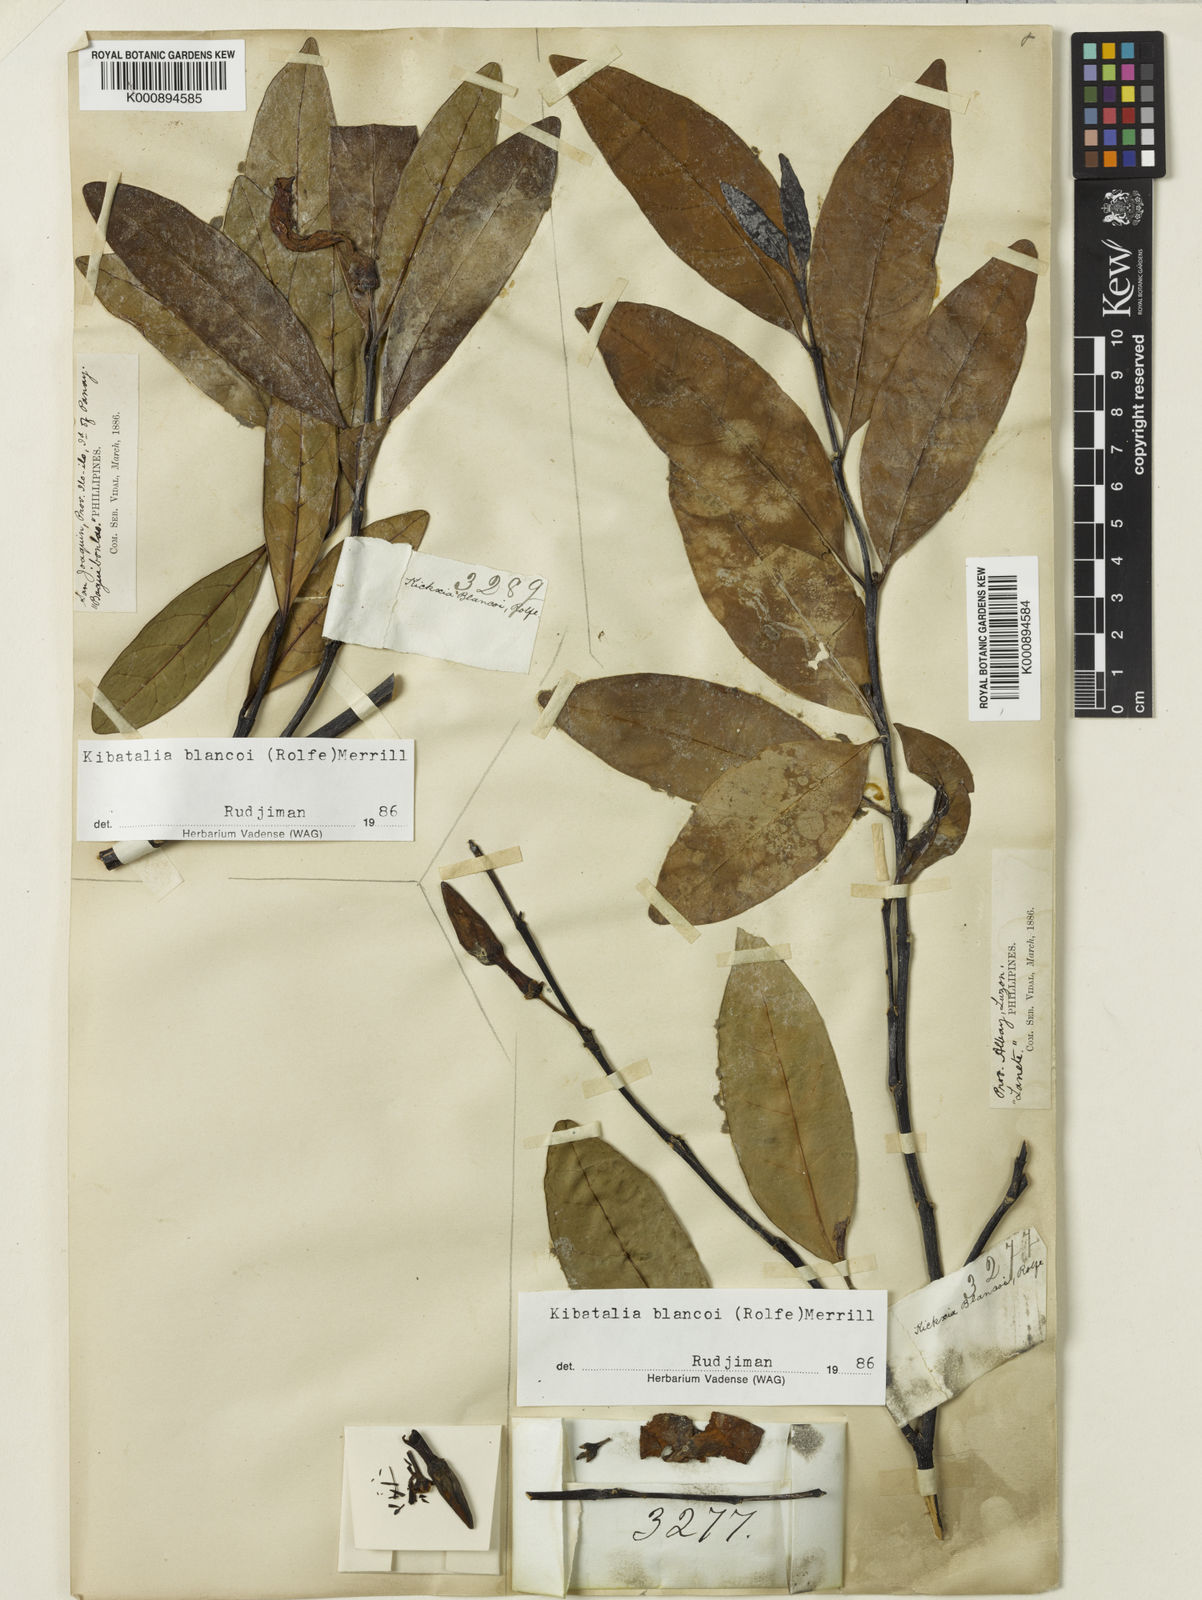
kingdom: Plantae
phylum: Tracheophyta
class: Magnoliopsida
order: Gentianales
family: Apocynaceae
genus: Kibatalia
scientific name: Kibatalia blancoi
